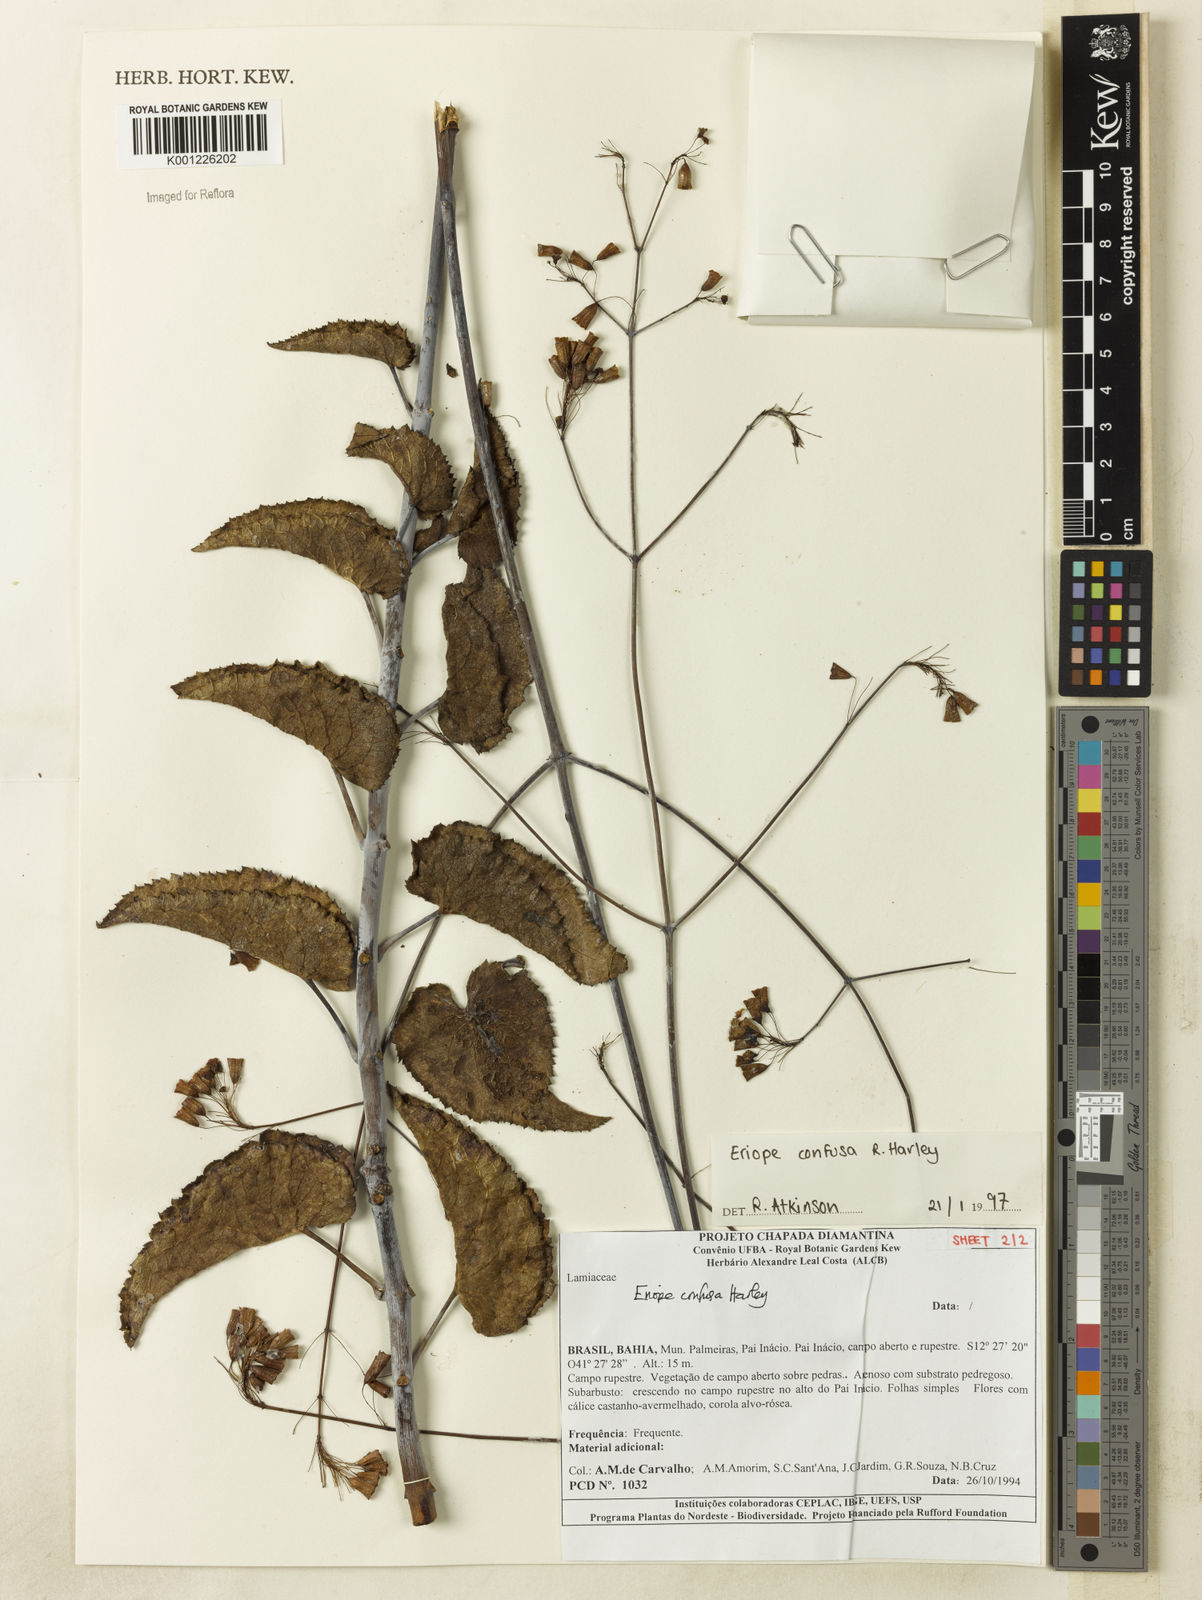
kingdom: Plantae
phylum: Tracheophyta
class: Magnoliopsida
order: Lamiales
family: Lamiaceae
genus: Eriope
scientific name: Eriope confusa
